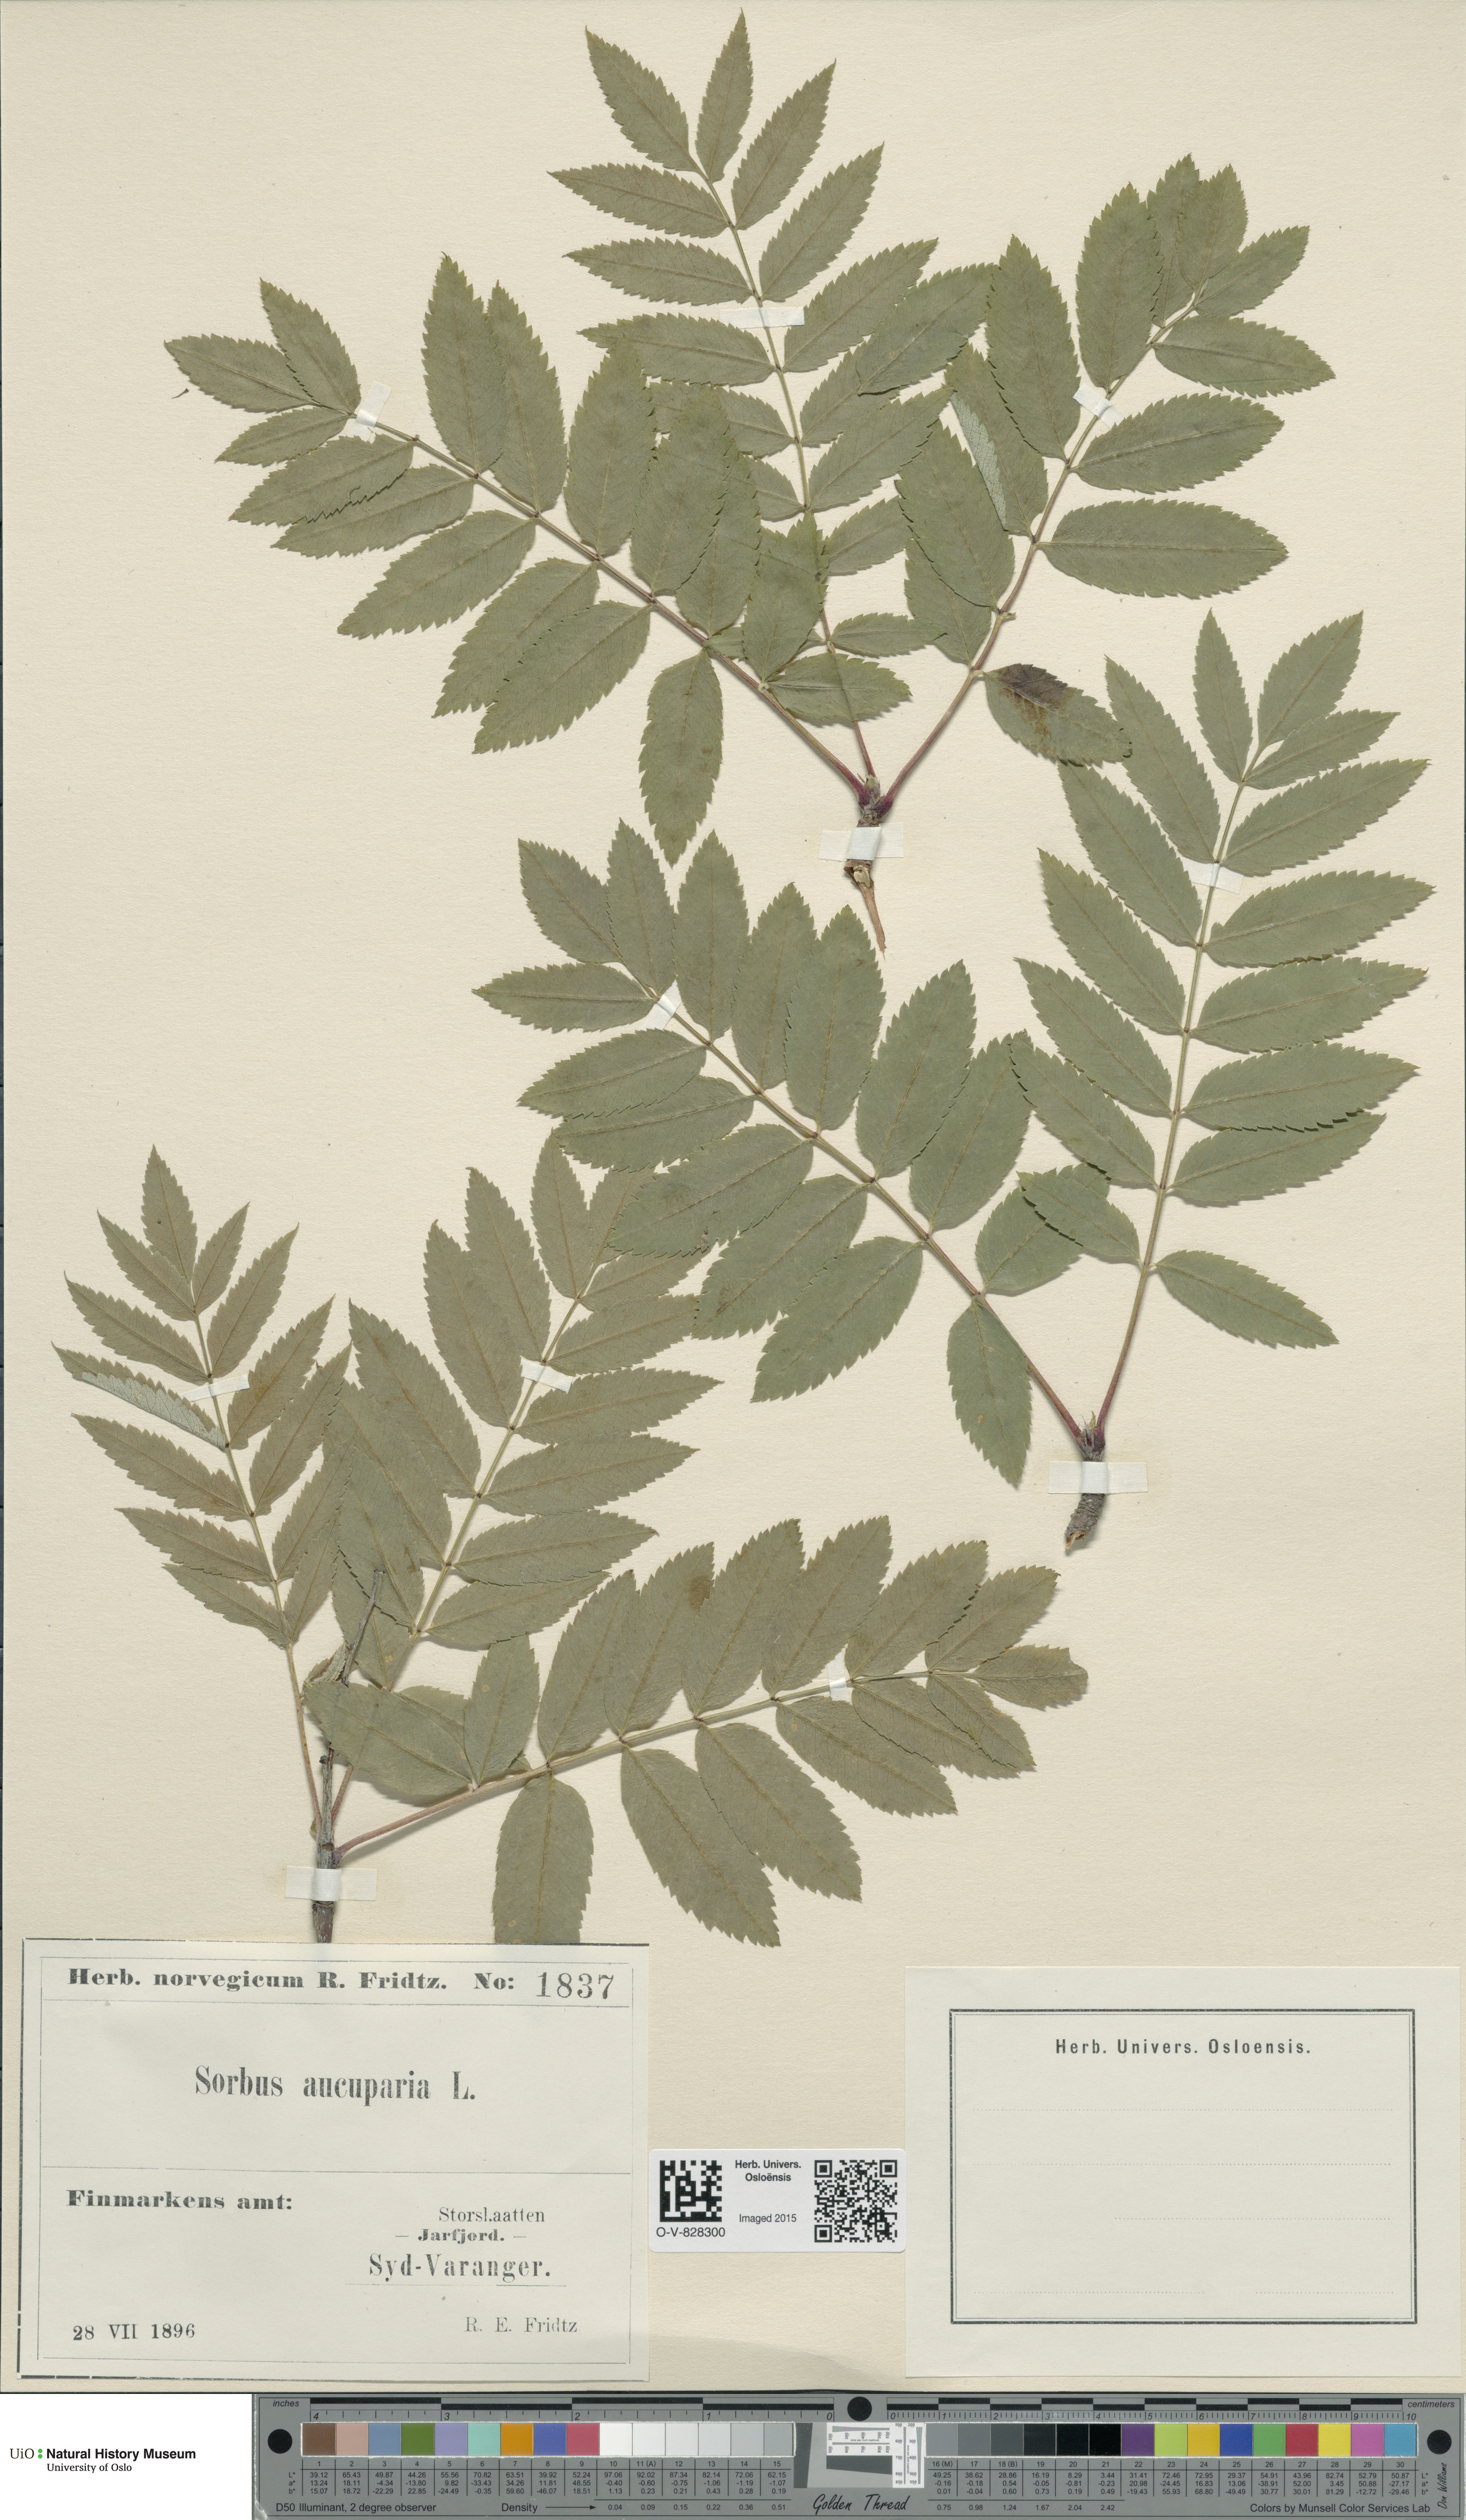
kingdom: Plantae
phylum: Tracheophyta
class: Magnoliopsida
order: Rosales
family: Rosaceae
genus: Sorbus
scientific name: Sorbus aucuparia
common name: Rowan
